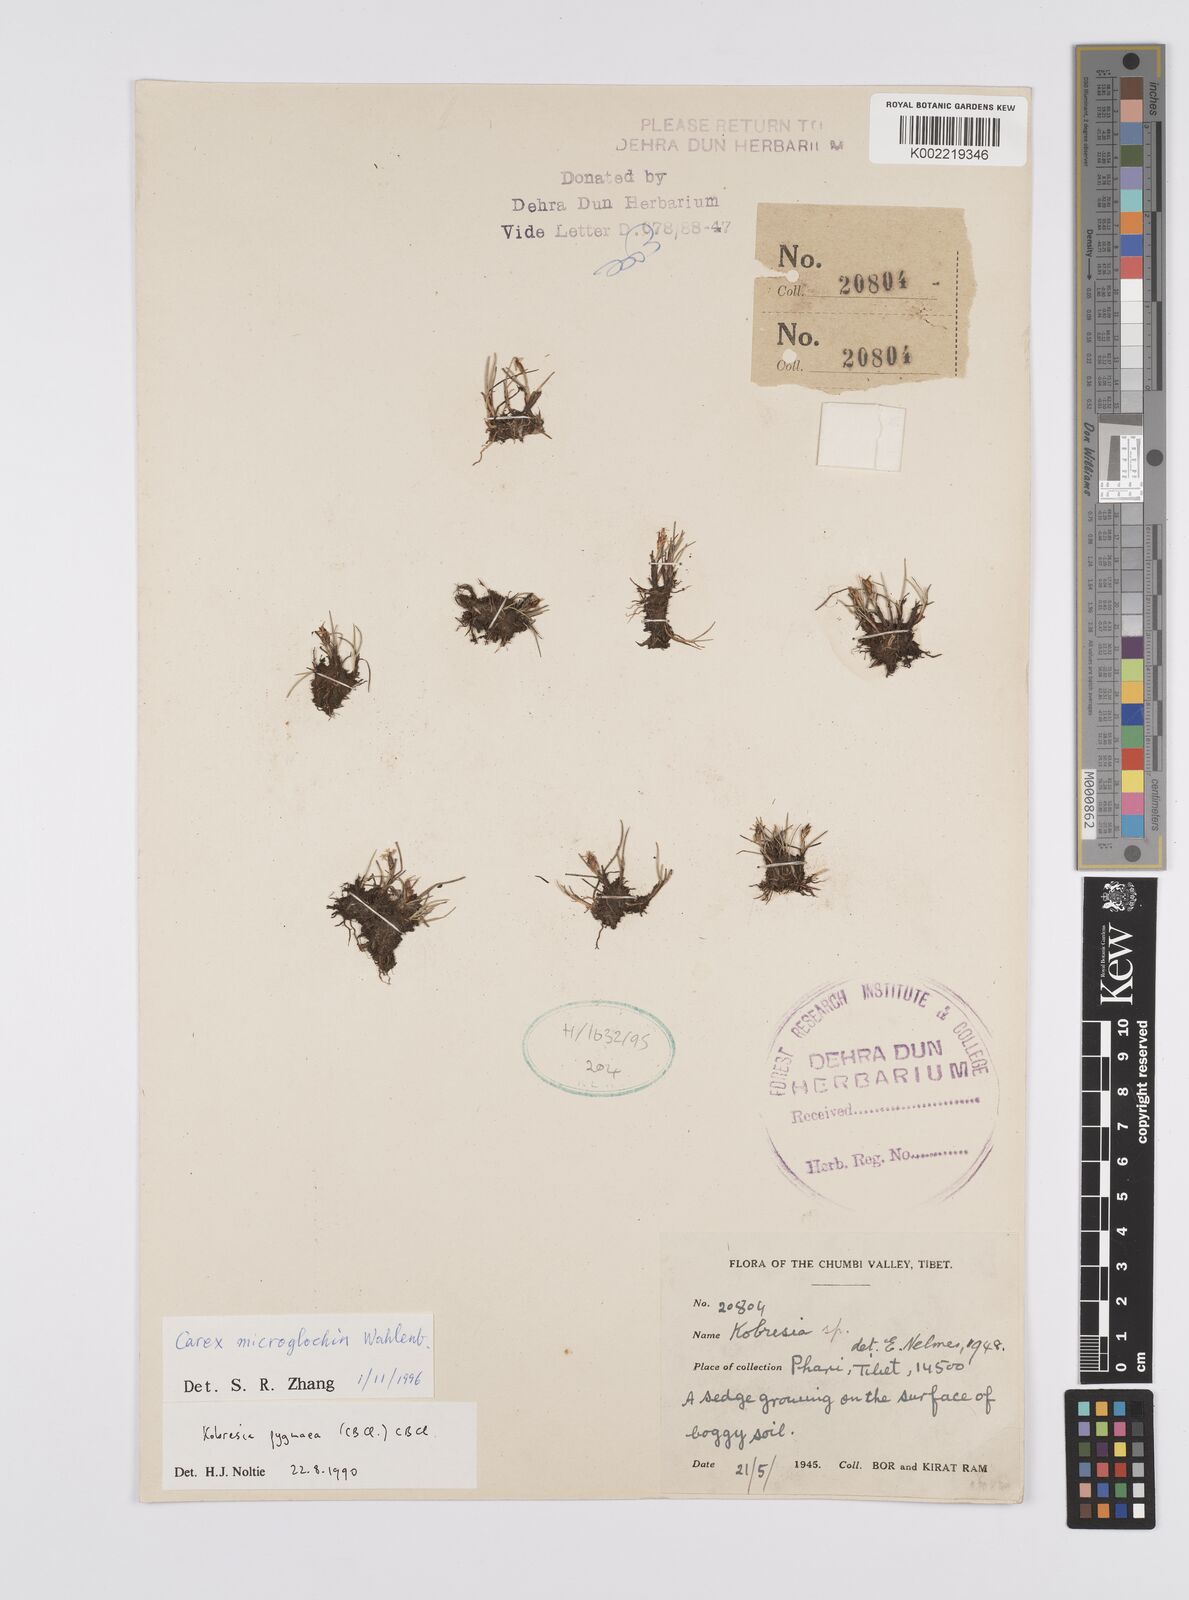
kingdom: Plantae
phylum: Tracheophyta
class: Liliopsida
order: Poales
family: Cyperaceae
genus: Carex
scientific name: Carex microglochin
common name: Bristle sedge
